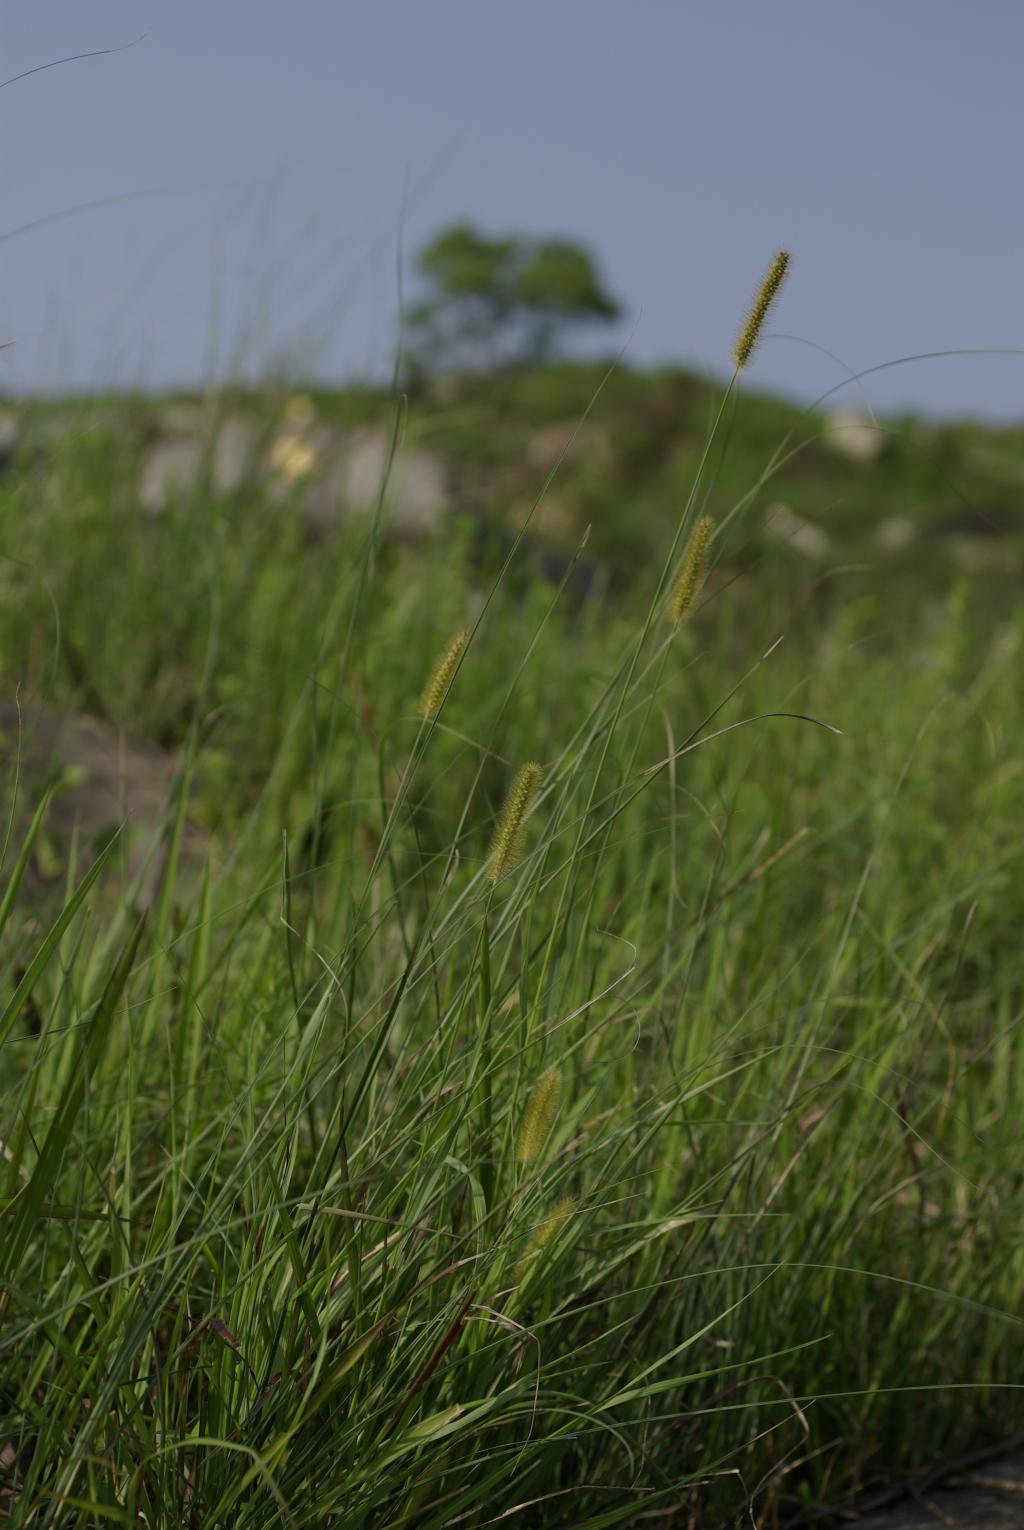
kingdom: Plantae
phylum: Tracheophyta
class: Liliopsida
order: Poales
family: Poaceae
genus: Setaria
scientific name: Setaria parviflora
